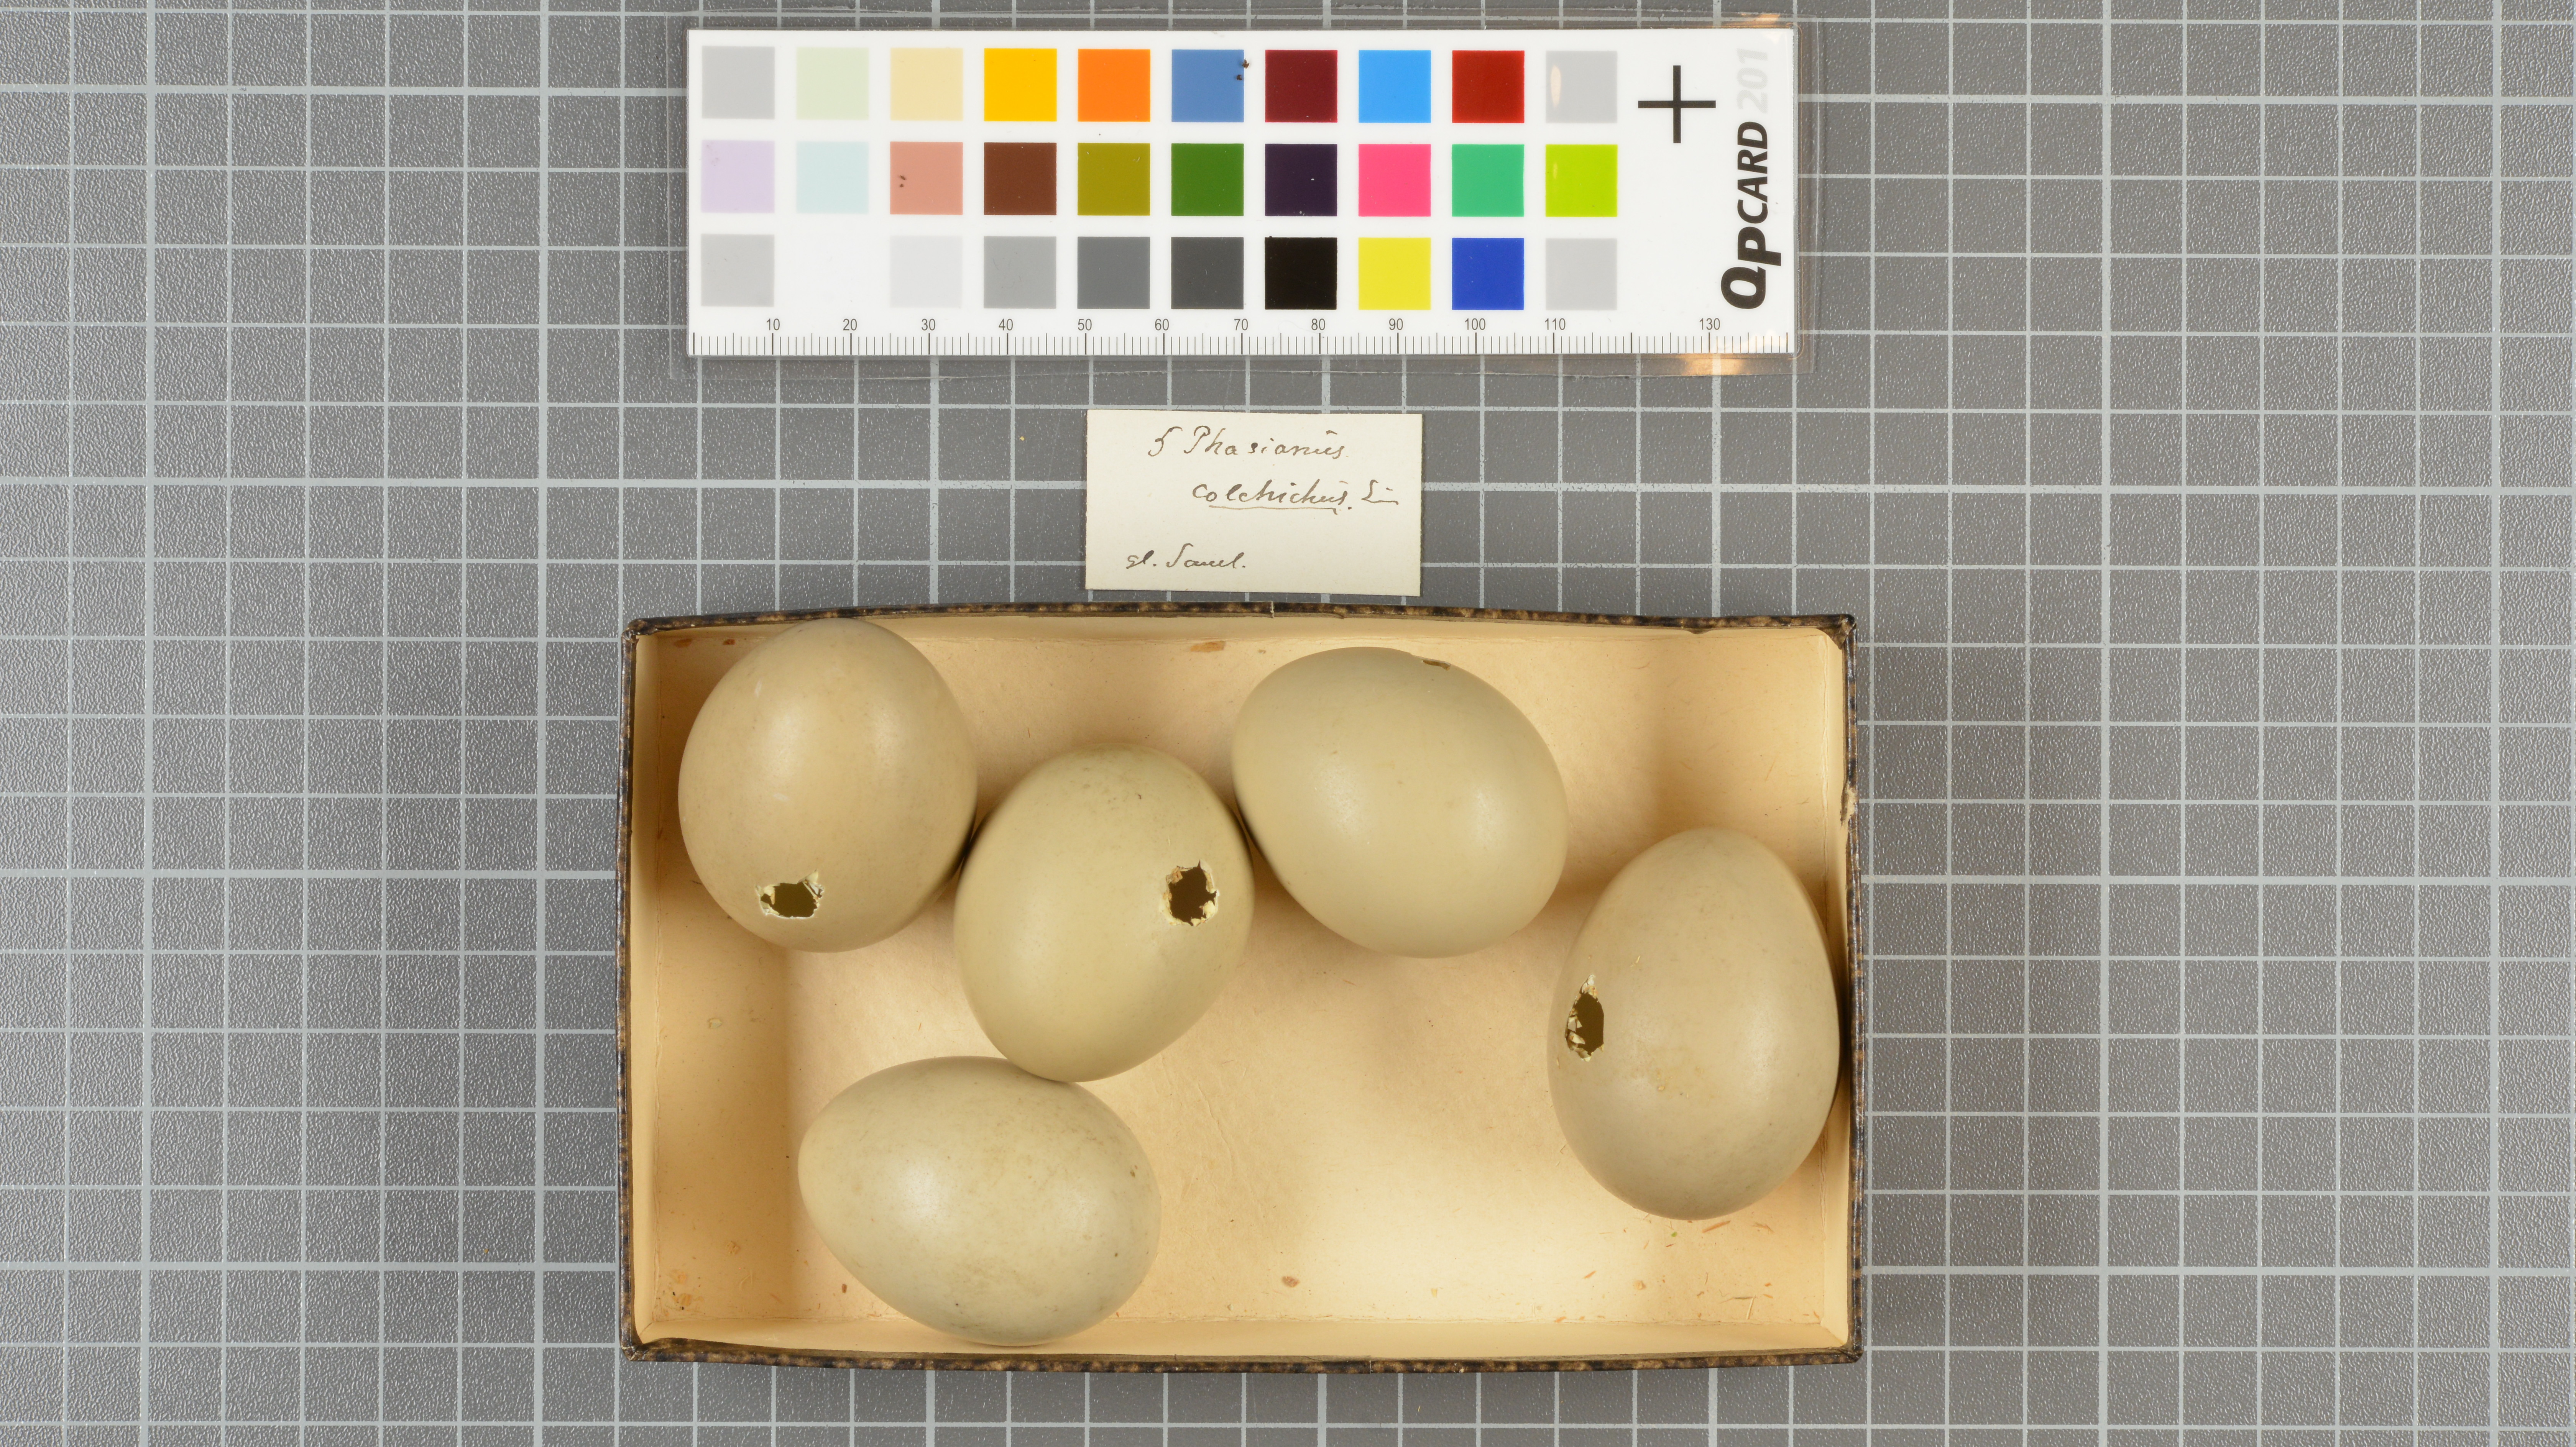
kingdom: Animalia
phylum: Chordata
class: Aves
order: Galliformes
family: Phasianidae
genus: Phasianus
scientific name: Phasianus colchicus
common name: Common pheasant
